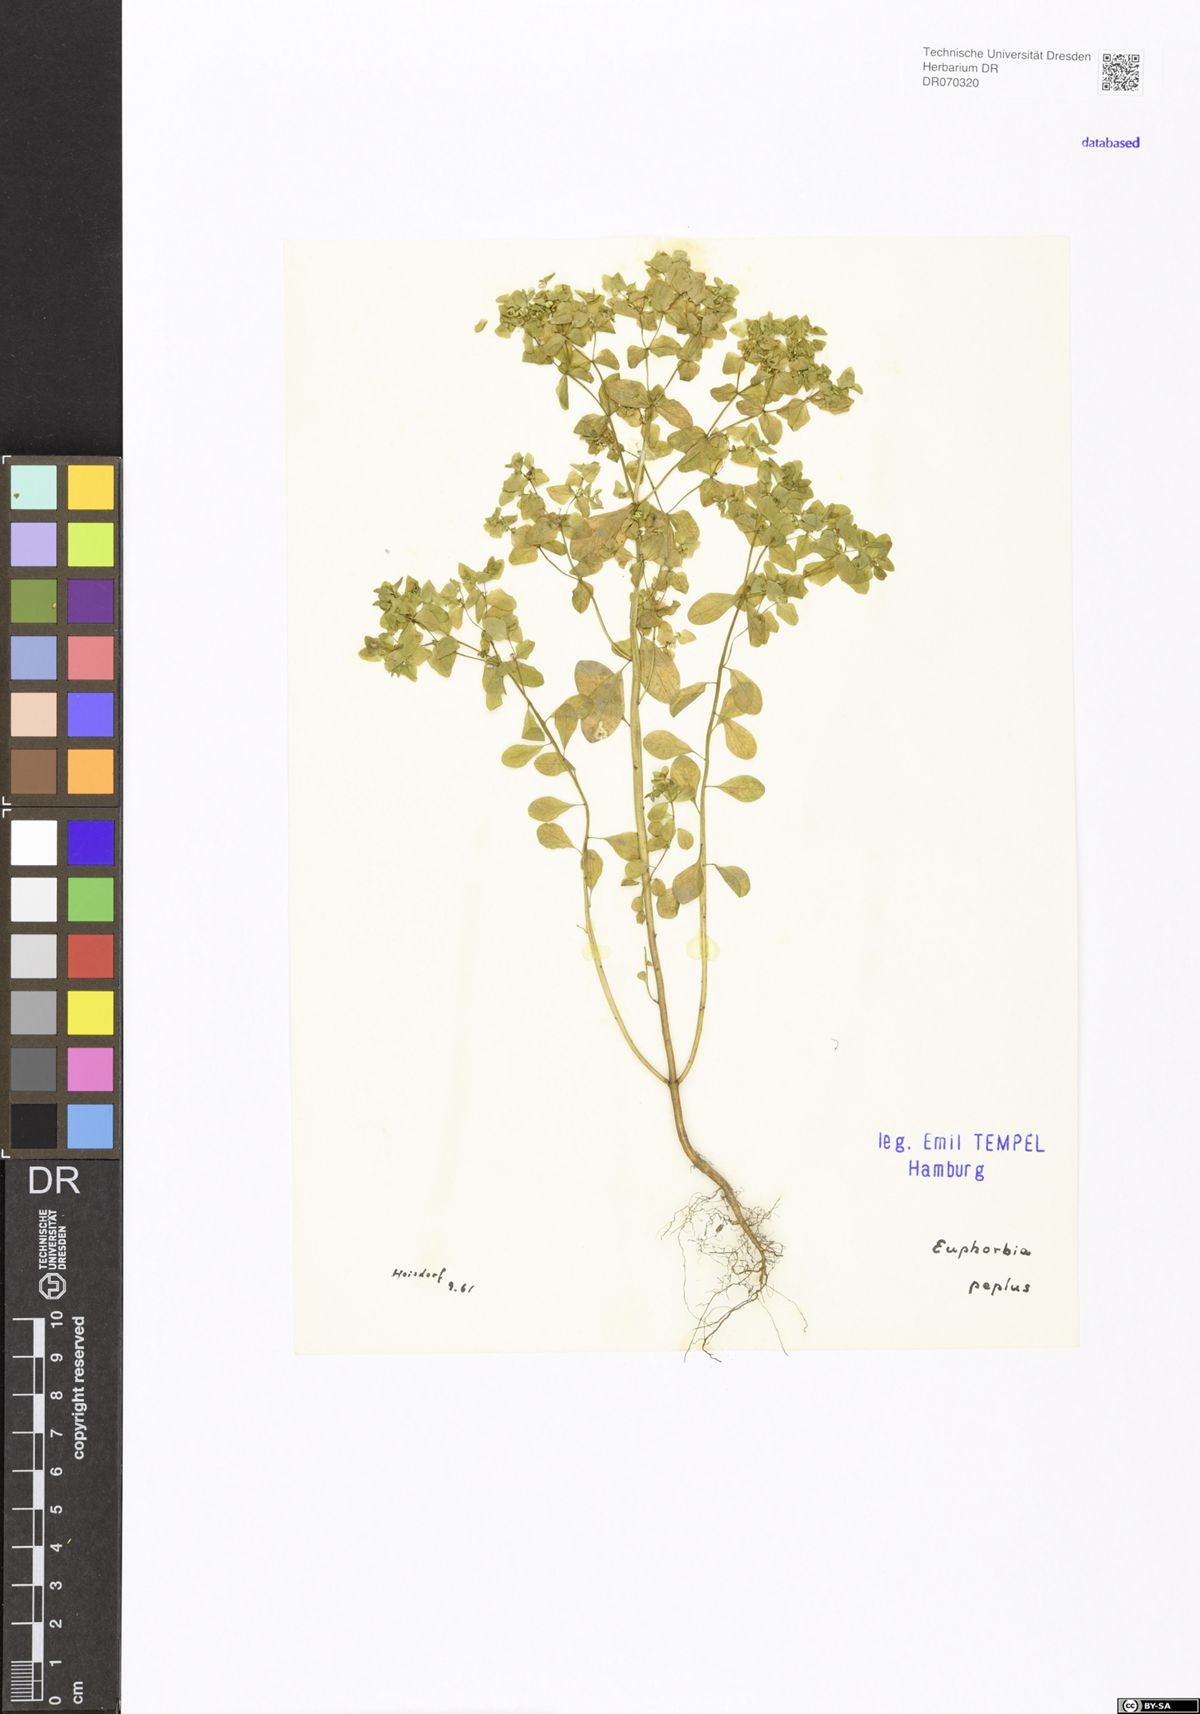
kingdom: Plantae
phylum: Tracheophyta
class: Magnoliopsida
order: Malpighiales
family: Euphorbiaceae
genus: Euphorbia
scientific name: Euphorbia peplus
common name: Petty spurge
